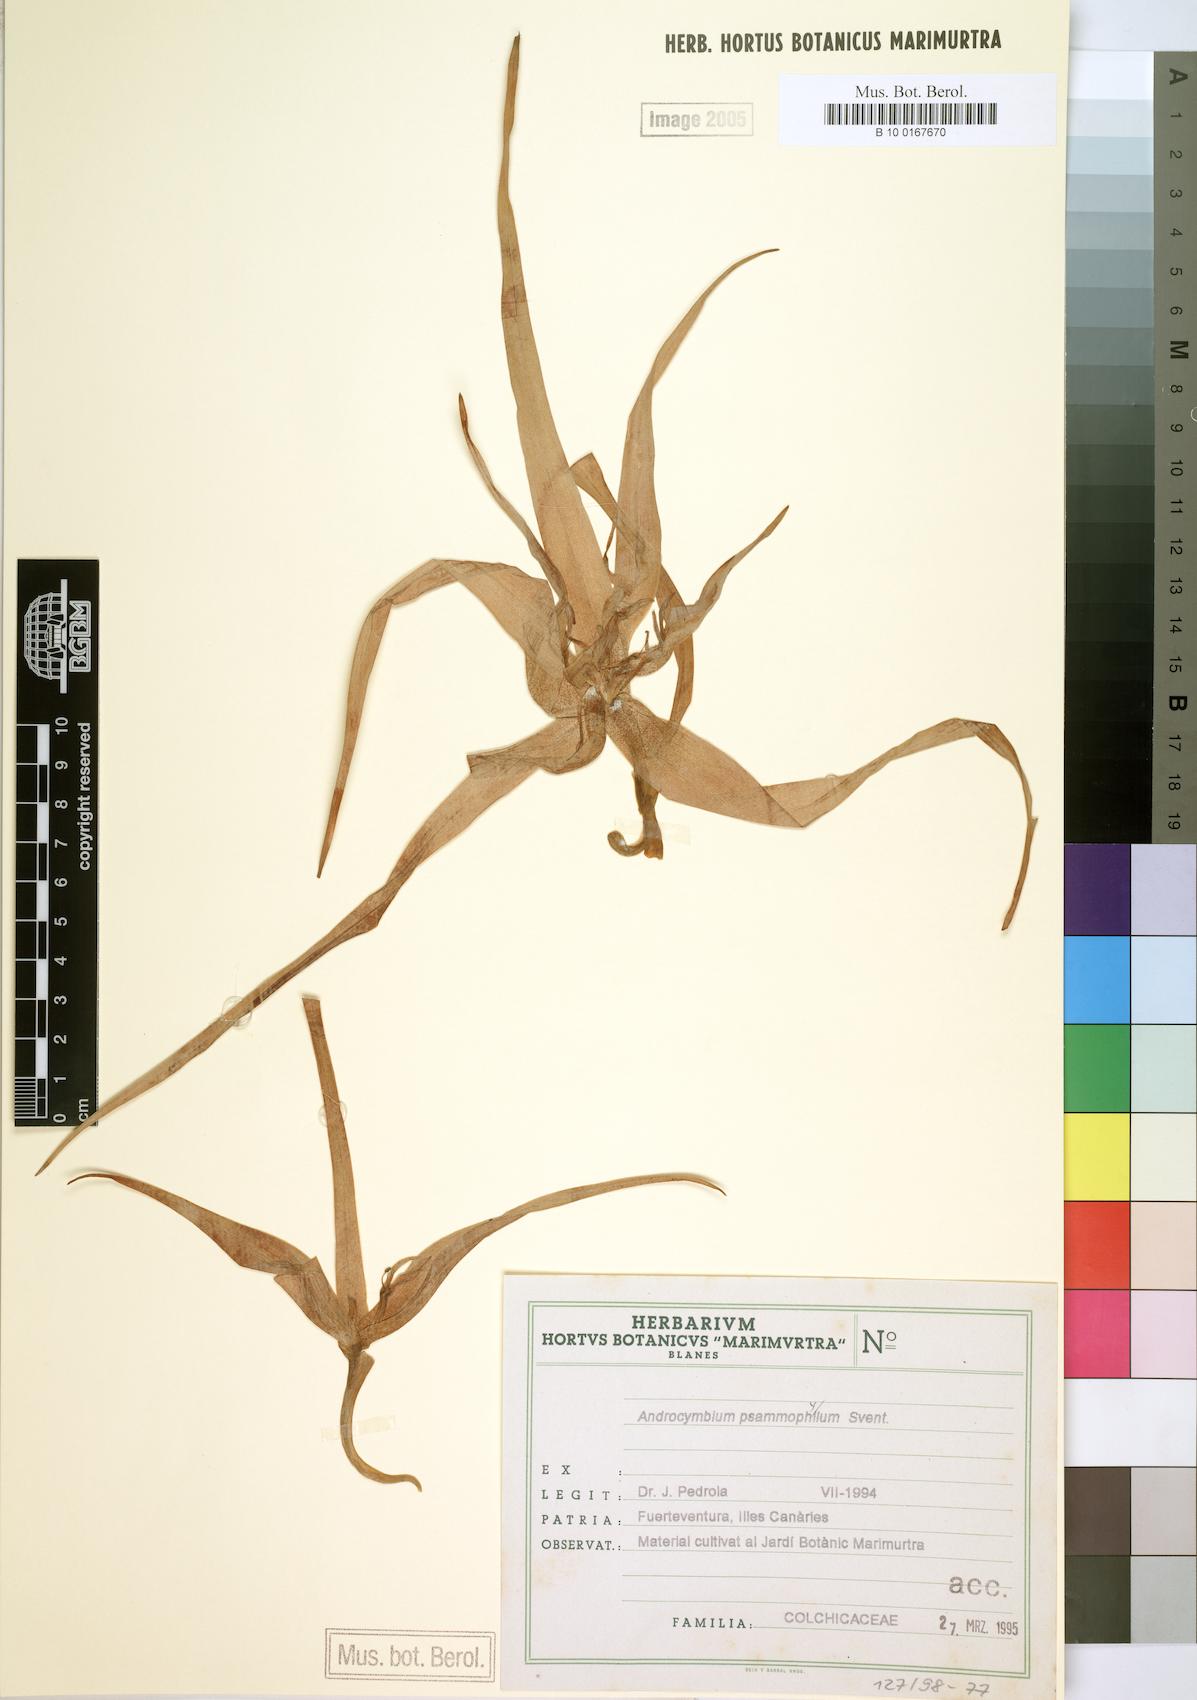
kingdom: Plantae
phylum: Tracheophyta
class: Liliopsida
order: Liliales
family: Colchicaceae
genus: Colchicum
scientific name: Colchicum psammophilum
